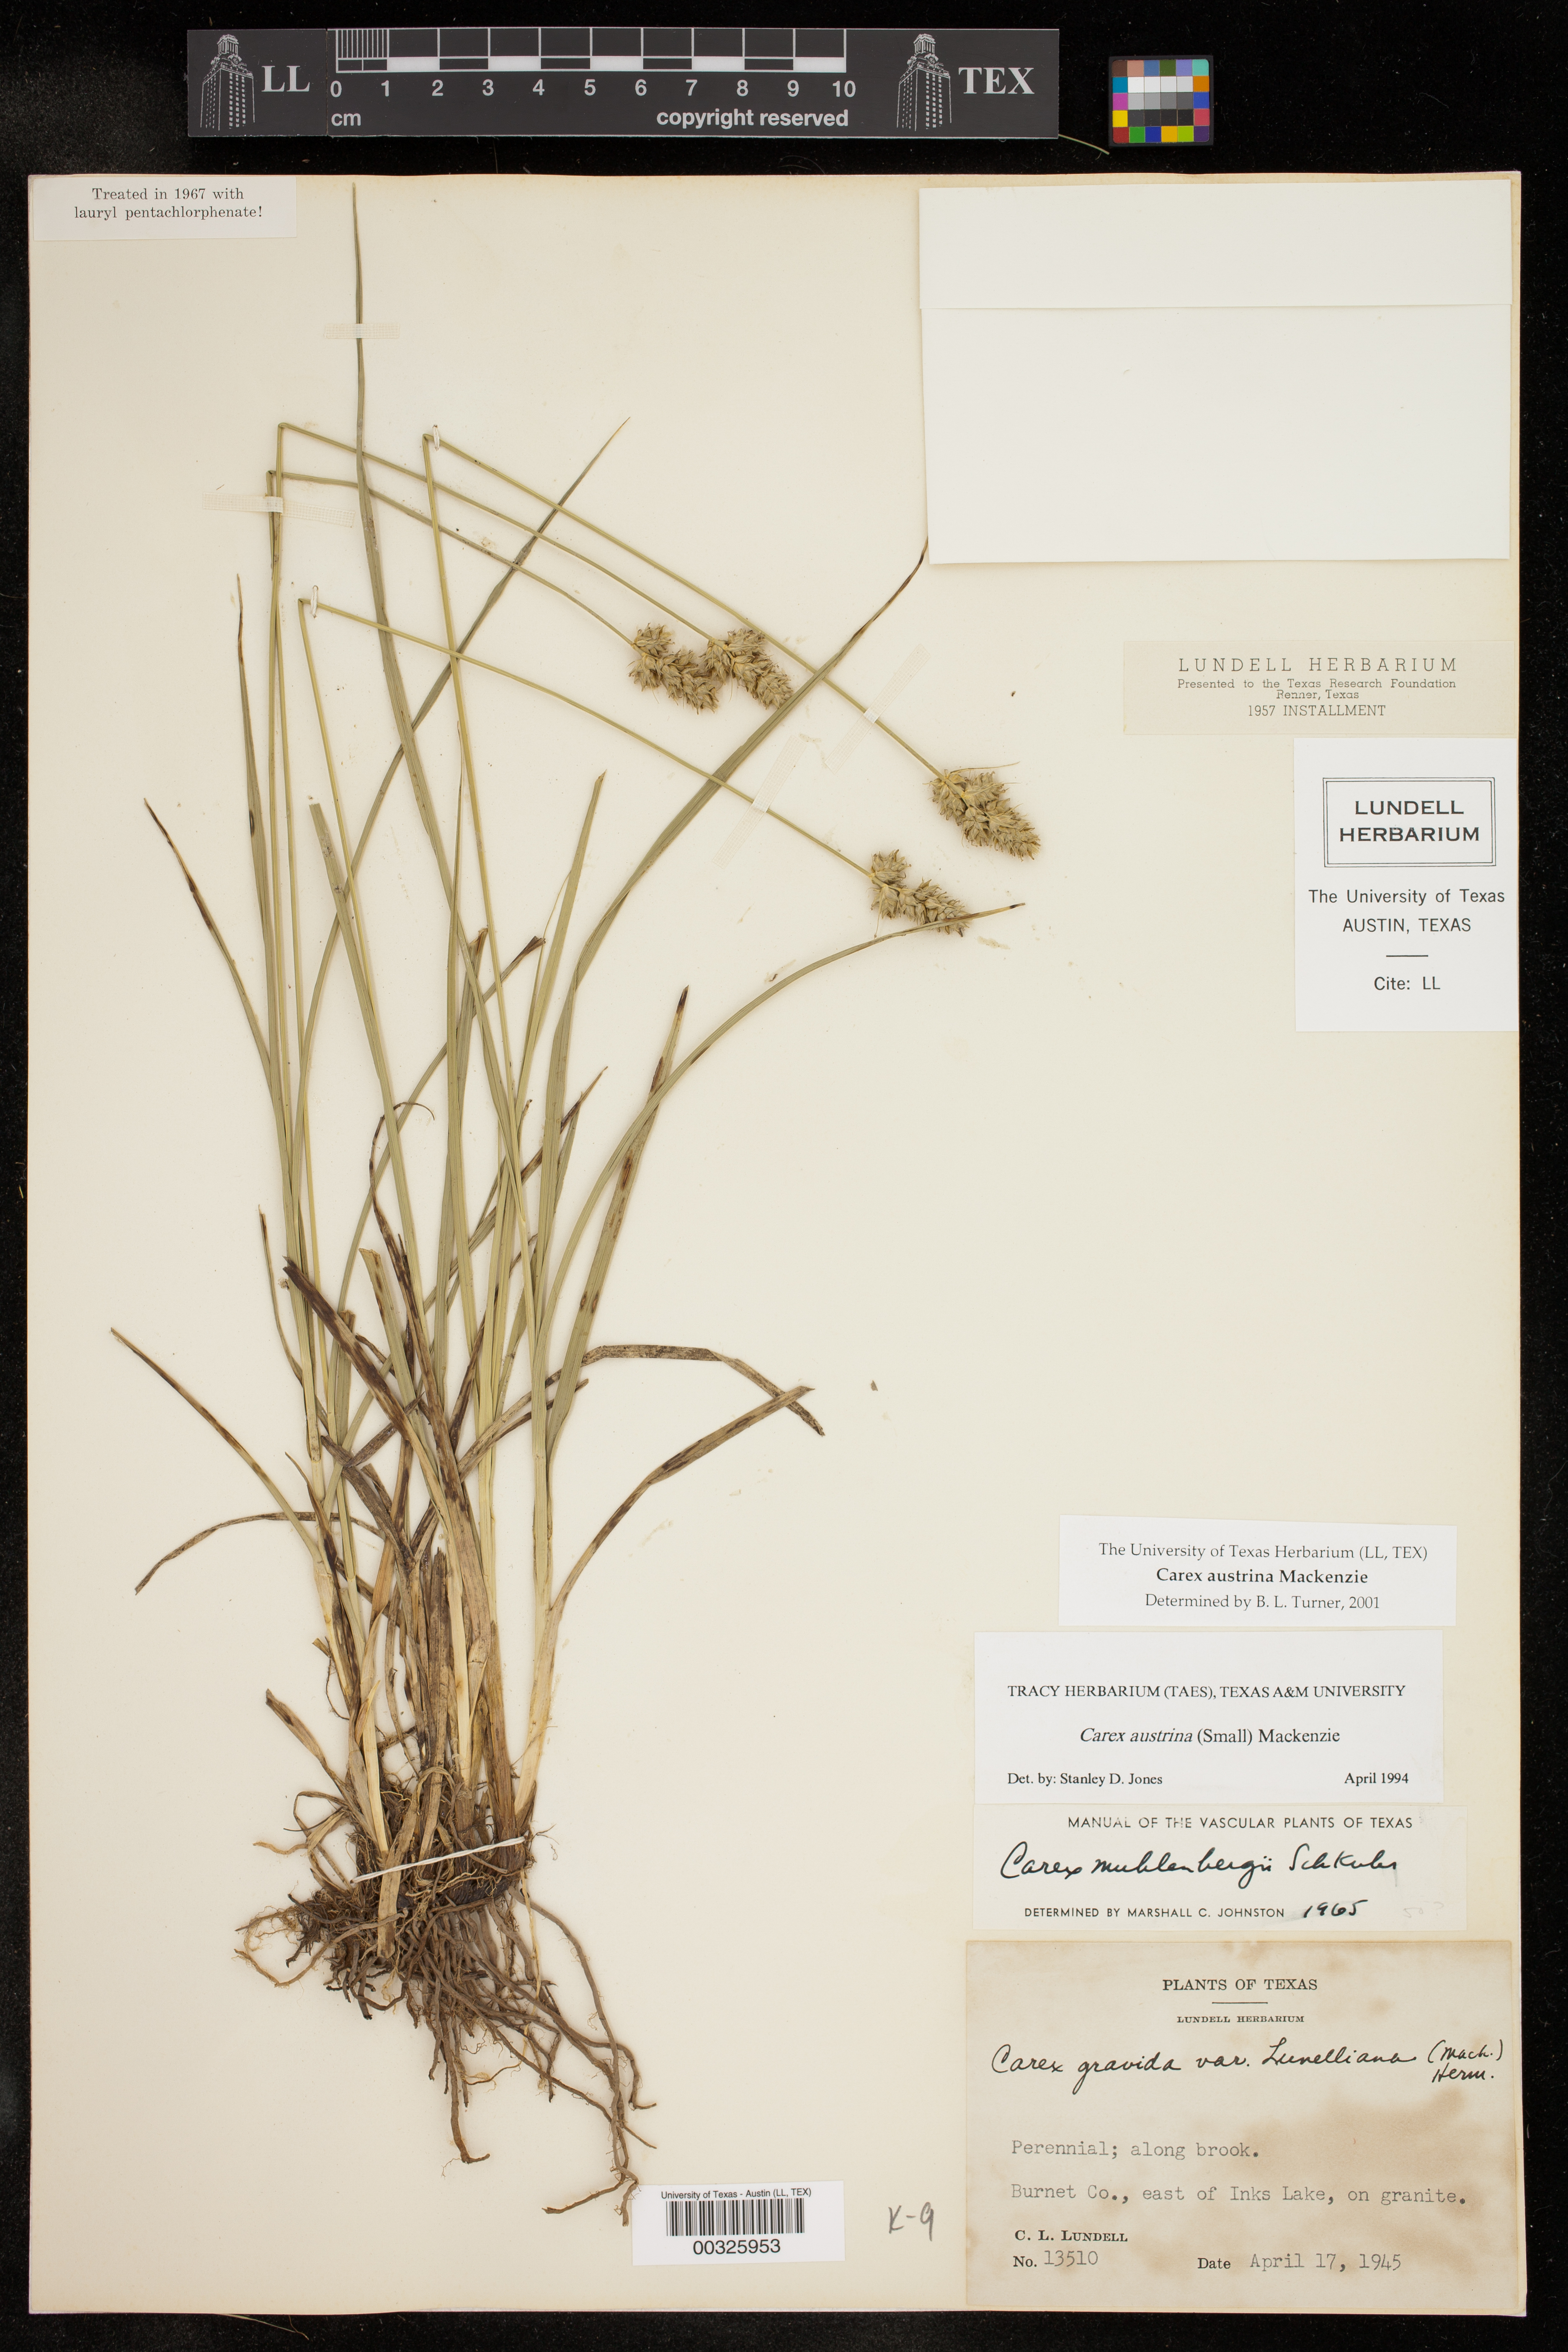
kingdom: Plantae
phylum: Tracheophyta
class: Liliopsida
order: Poales
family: Cyperaceae
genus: Carex
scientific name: Carex austrina
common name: Southern sedge
